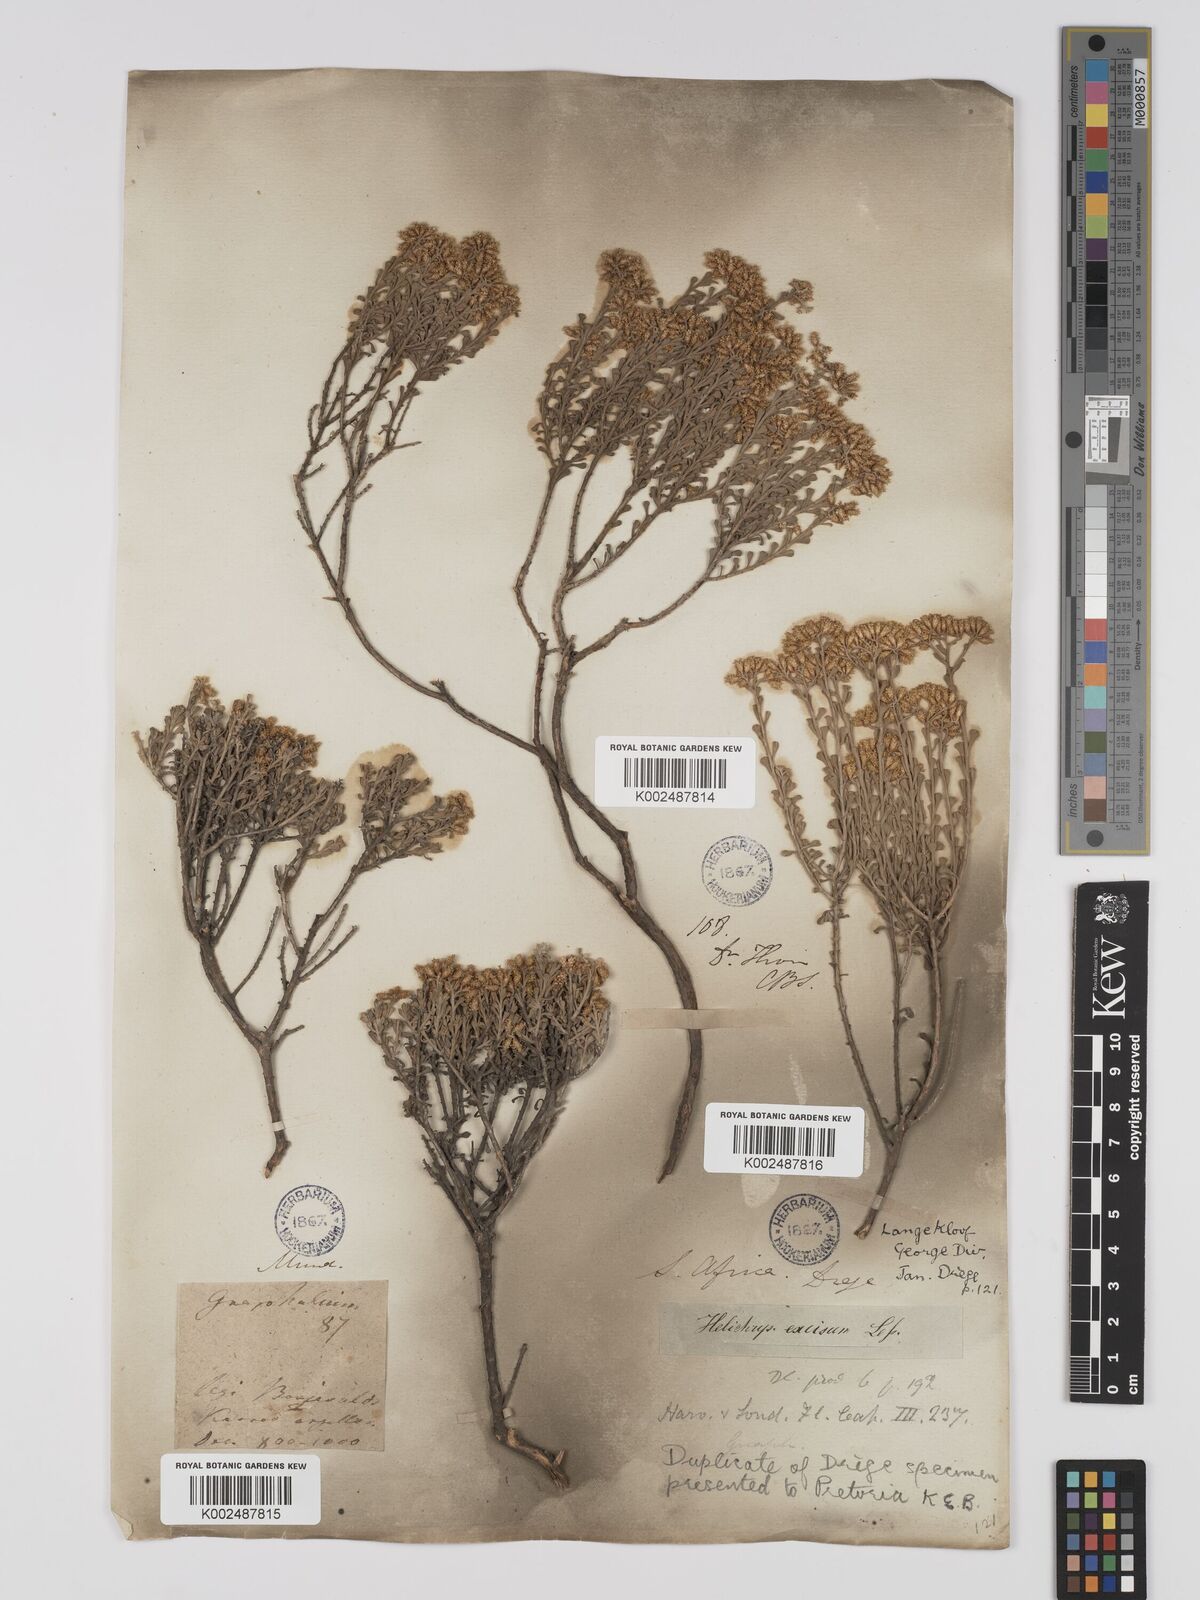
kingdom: Plantae
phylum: Tracheophyta
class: Magnoliopsida
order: Asterales
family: Asteraceae
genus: Helichrysum
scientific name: Helichrysum excisum
